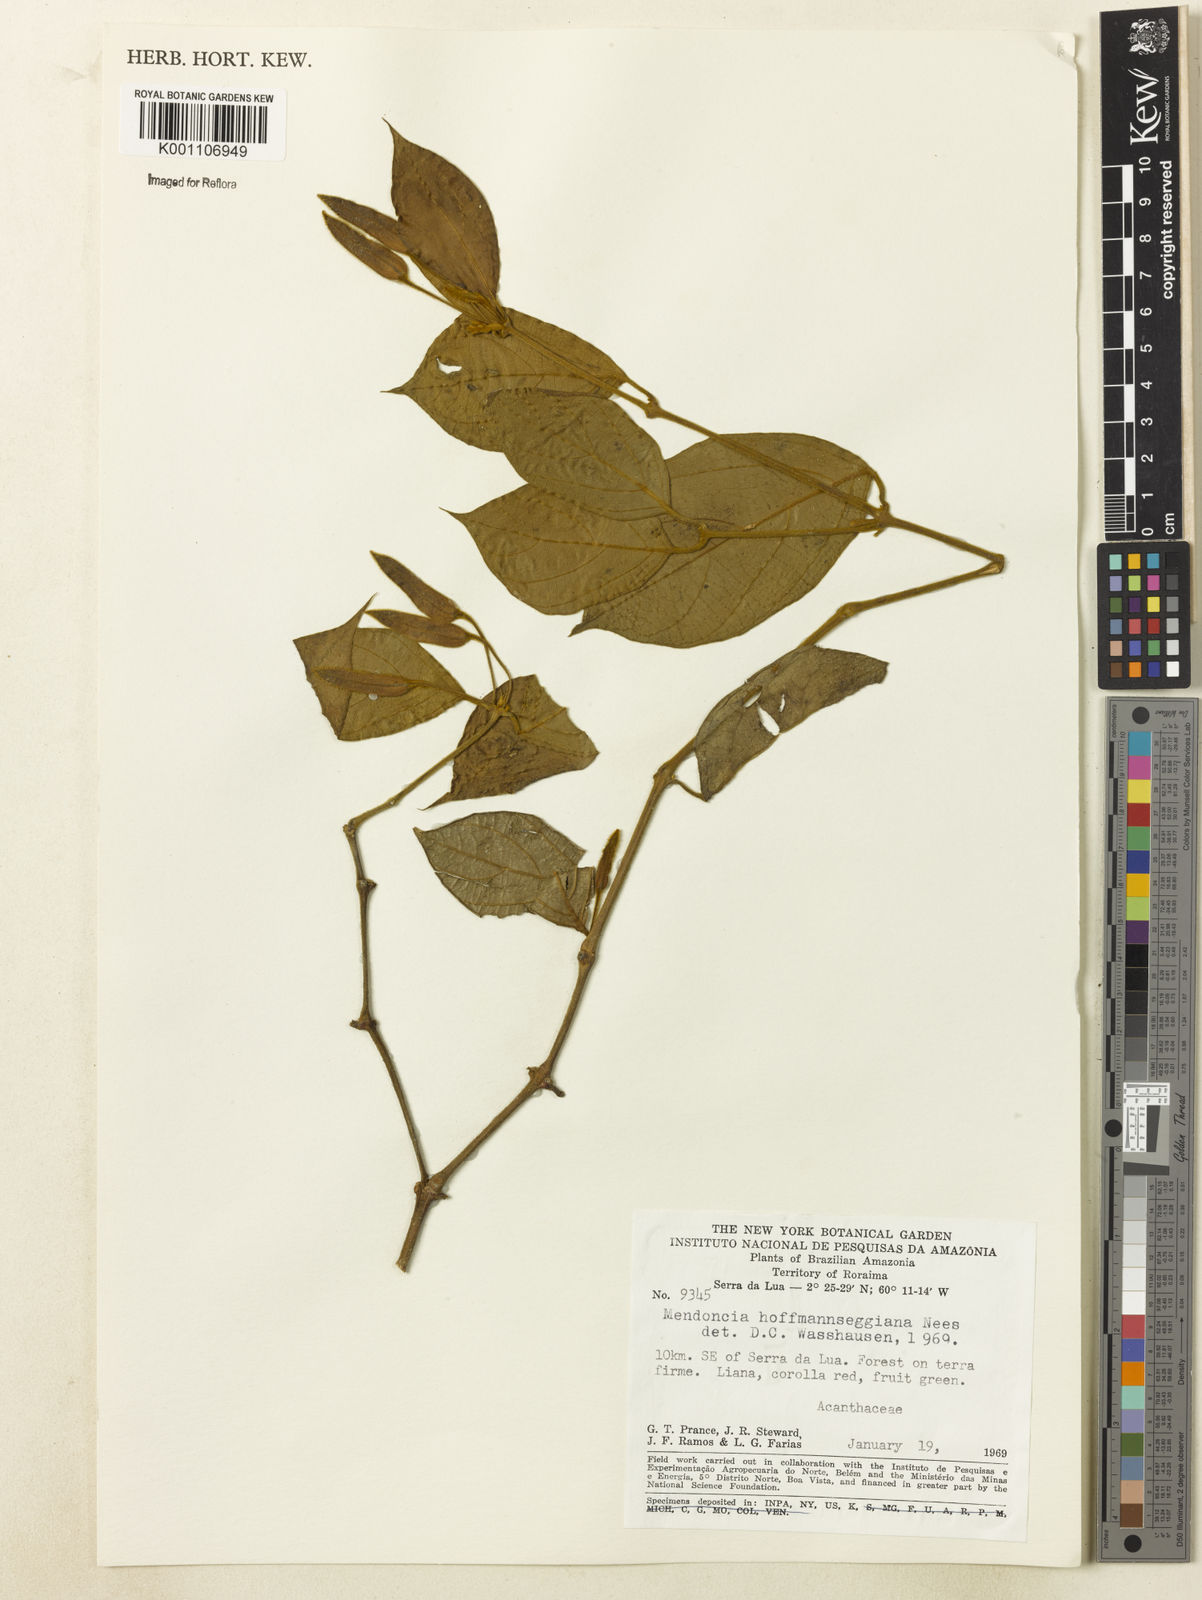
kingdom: Plantae
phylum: Tracheophyta
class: Magnoliopsida
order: Lamiales
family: Acanthaceae
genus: Mendoncia
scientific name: Mendoncia hoffmannseggiana
